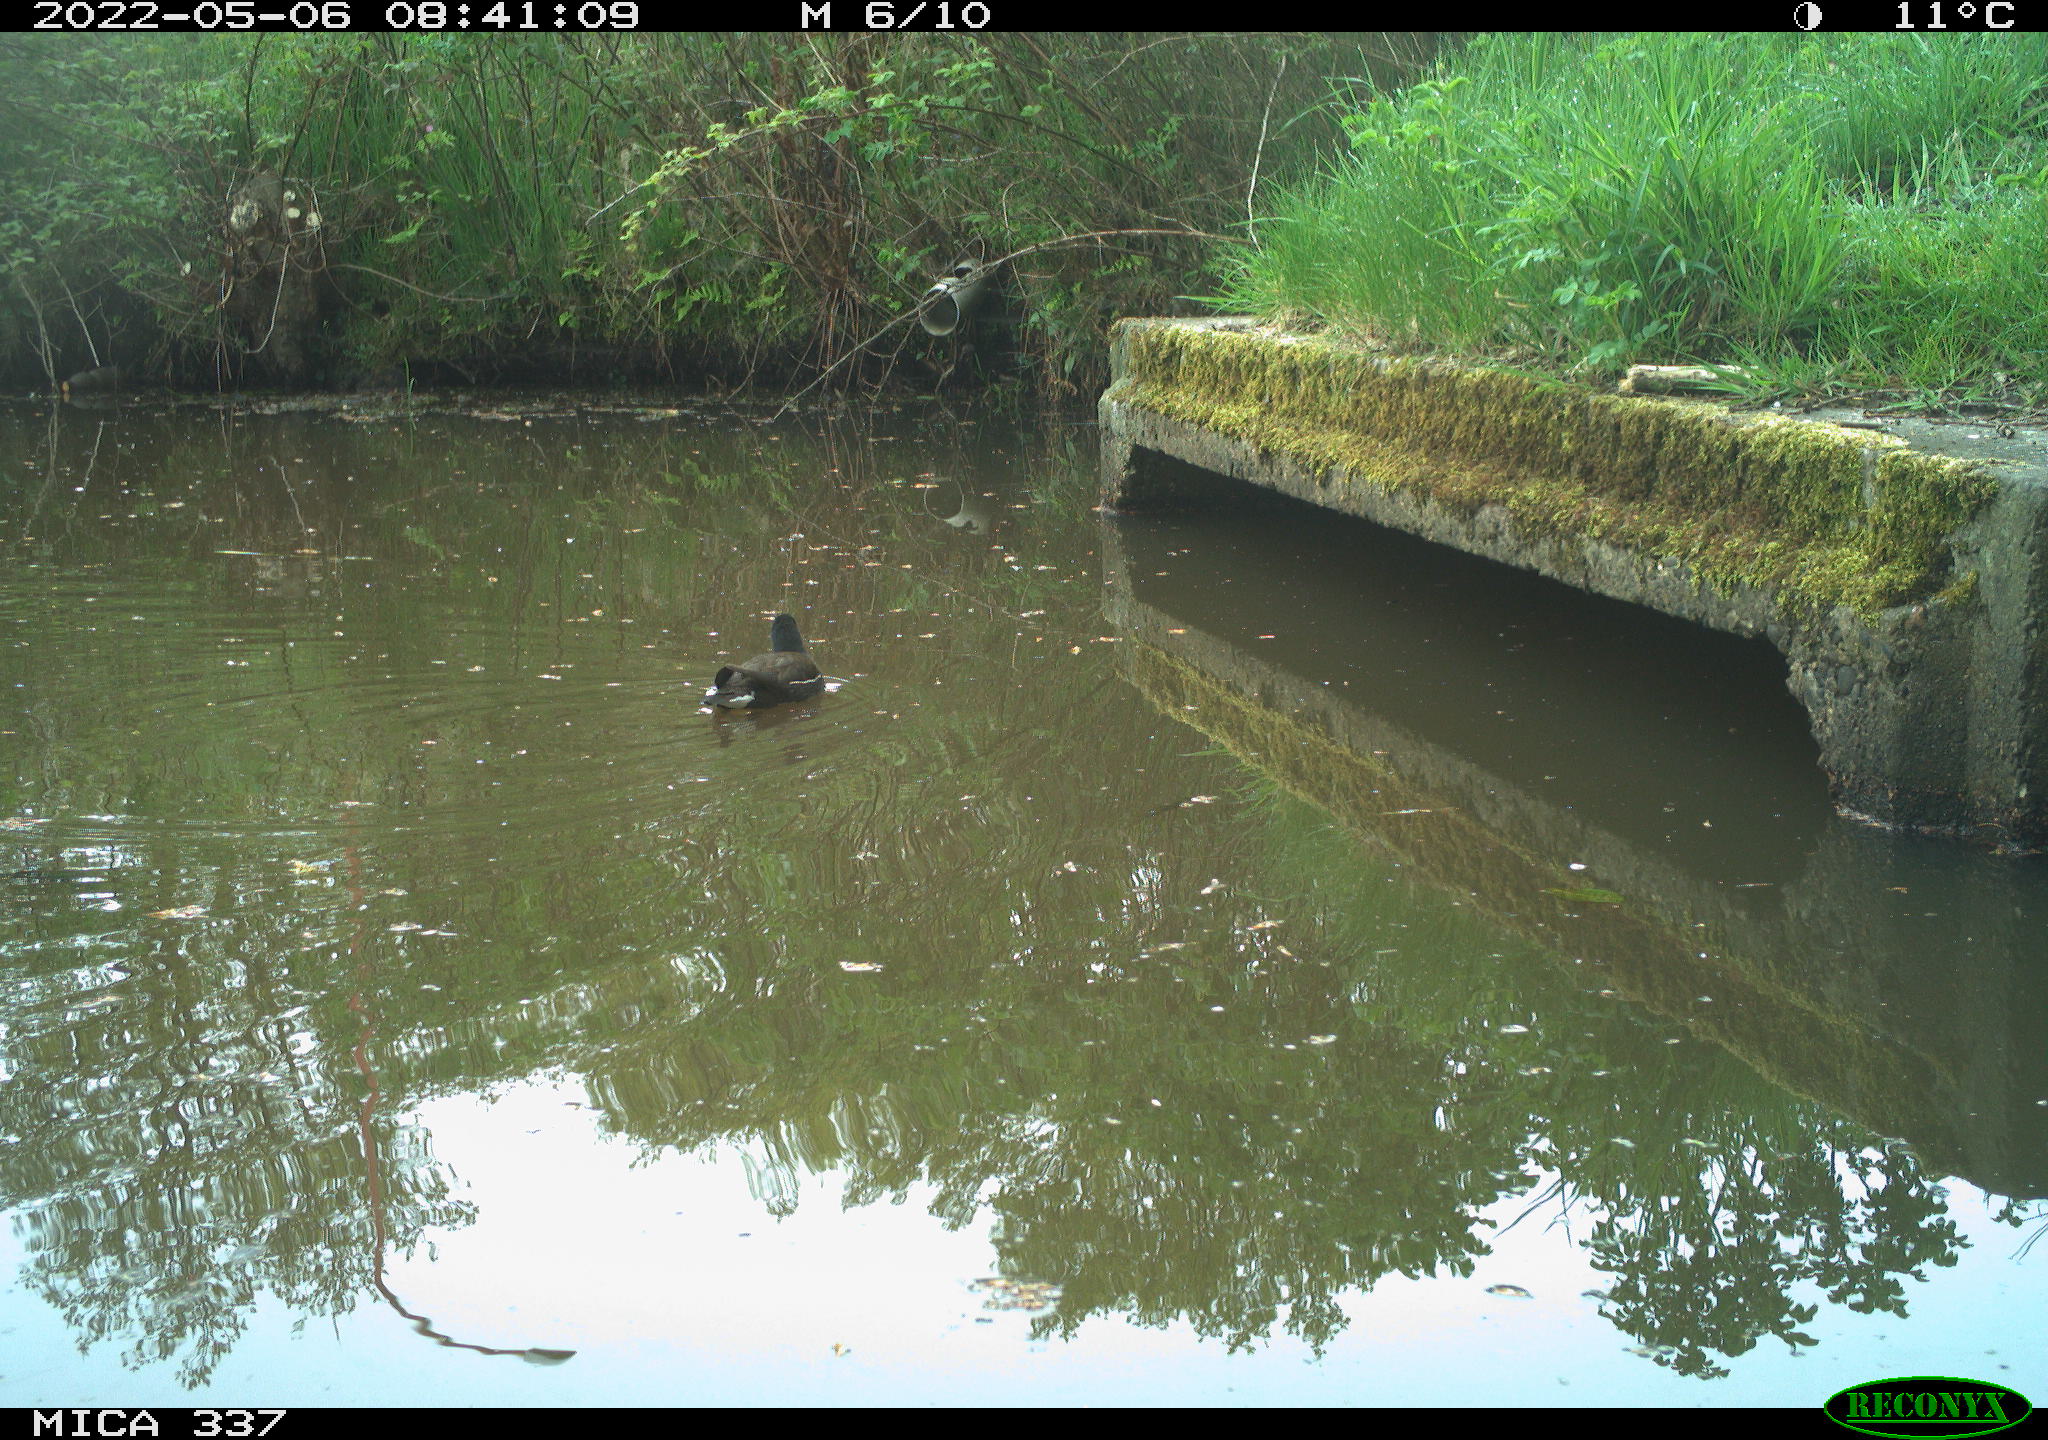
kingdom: Animalia
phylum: Chordata
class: Aves
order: Gruiformes
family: Rallidae
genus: Gallinula
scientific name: Gallinula chloropus
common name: Common moorhen
